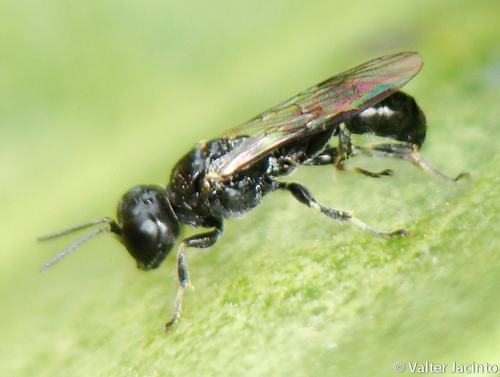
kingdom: Animalia
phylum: Arthropoda
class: Insecta
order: Hymenoptera
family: Crabronidae
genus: Crossocerus
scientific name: Crossocerus
